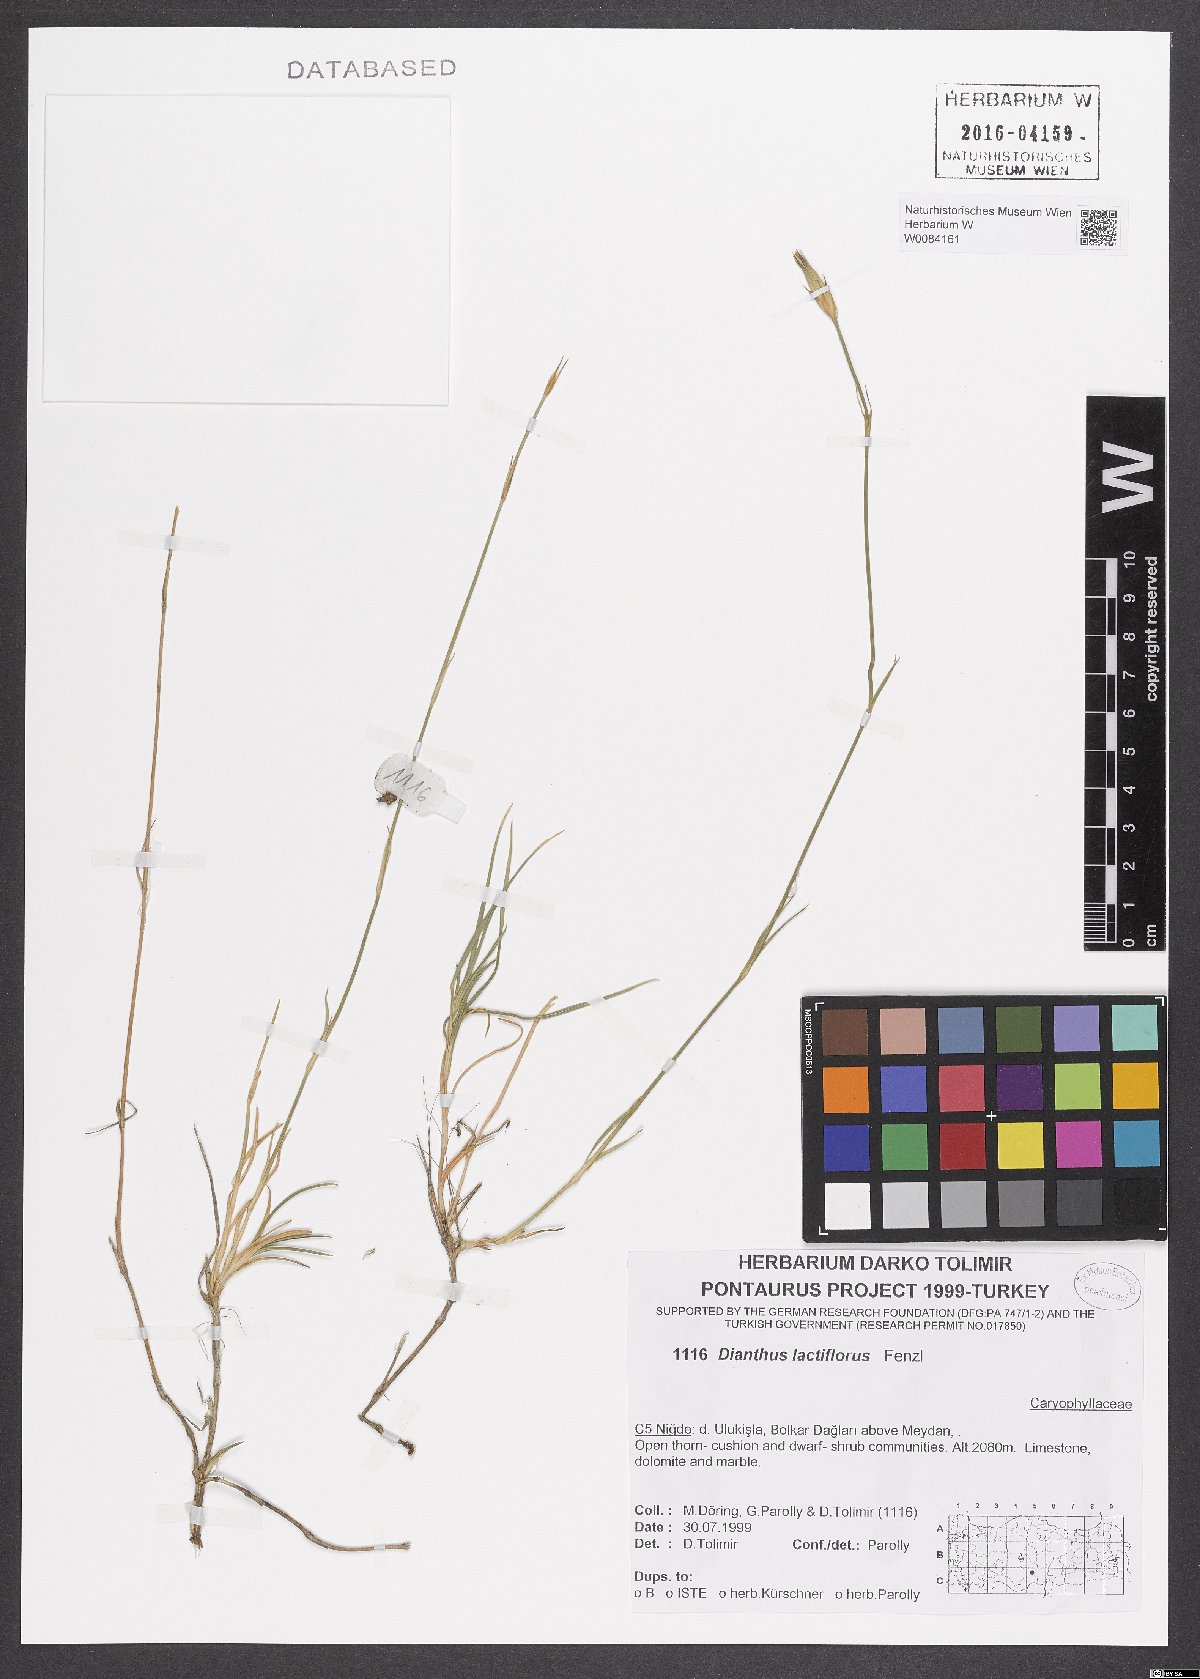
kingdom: Plantae
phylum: Tracheophyta
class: Magnoliopsida
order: Caryophyllales
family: Caryophyllaceae
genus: Dianthus
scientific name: Dianthus lactiflorus
